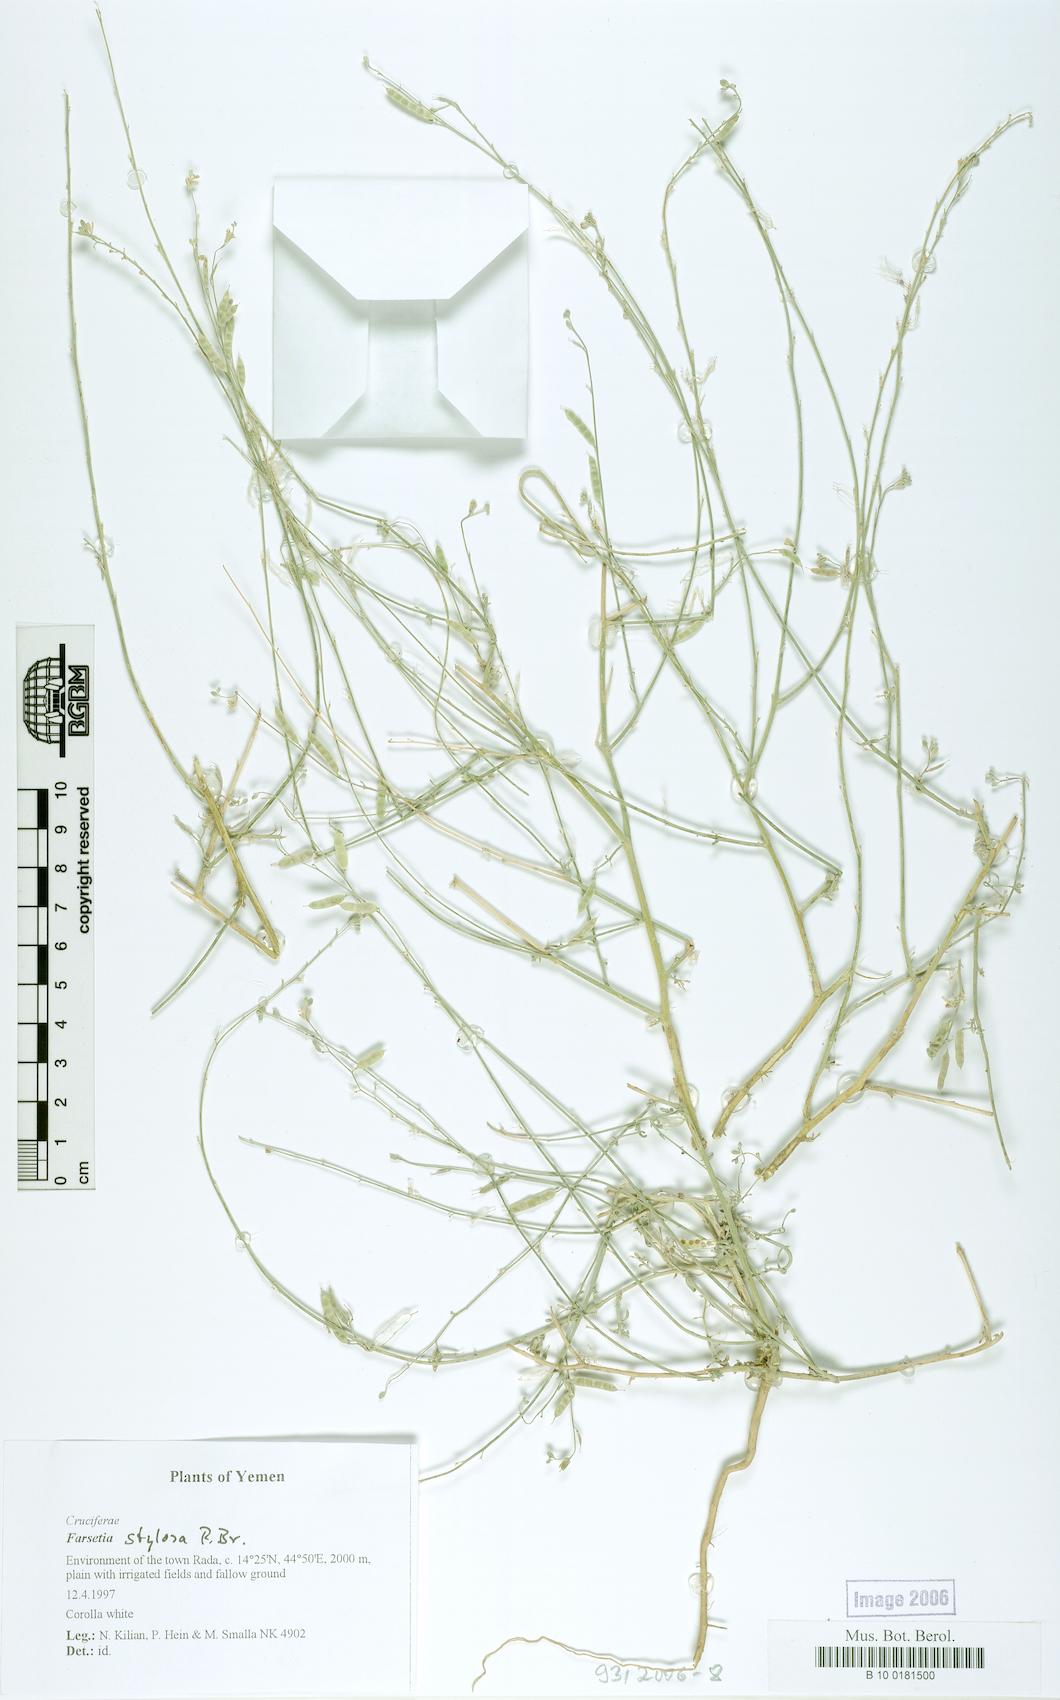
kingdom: Plantae
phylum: Tracheophyta
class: Magnoliopsida
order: Brassicales
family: Brassicaceae
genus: Farsetia
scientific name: Farsetia stylosa
